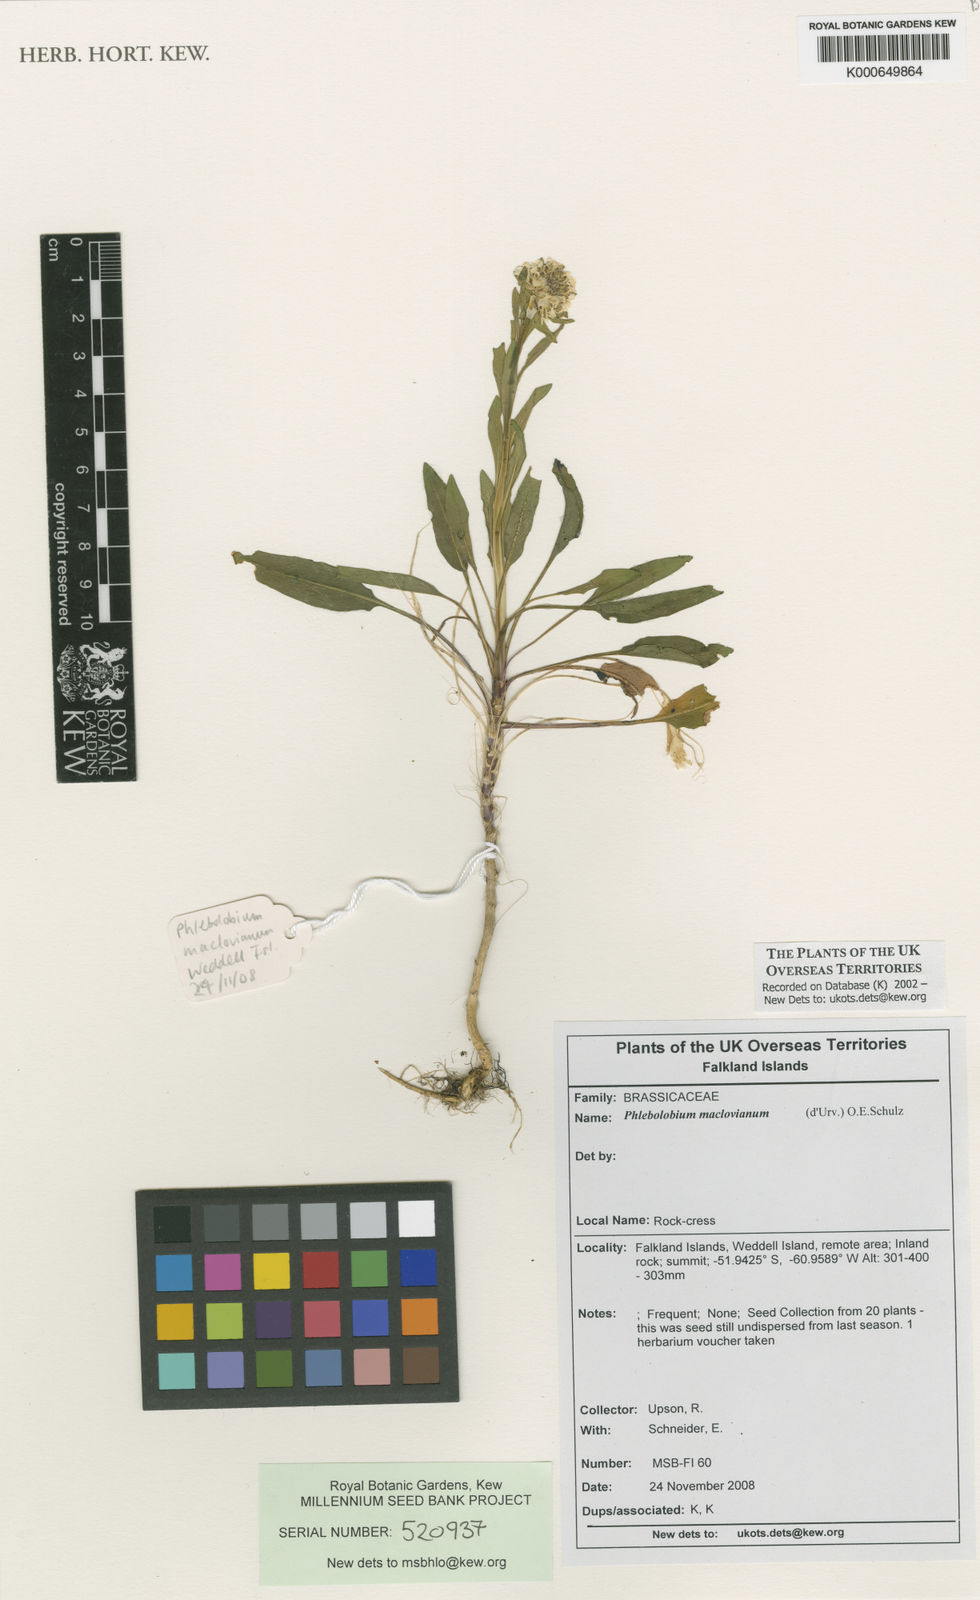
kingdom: Plantae
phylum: Tracheophyta
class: Magnoliopsida
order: Brassicales
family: Brassicaceae
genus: Phlebolobium
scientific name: Phlebolobium maclovianum
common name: Falkland rock-cress
